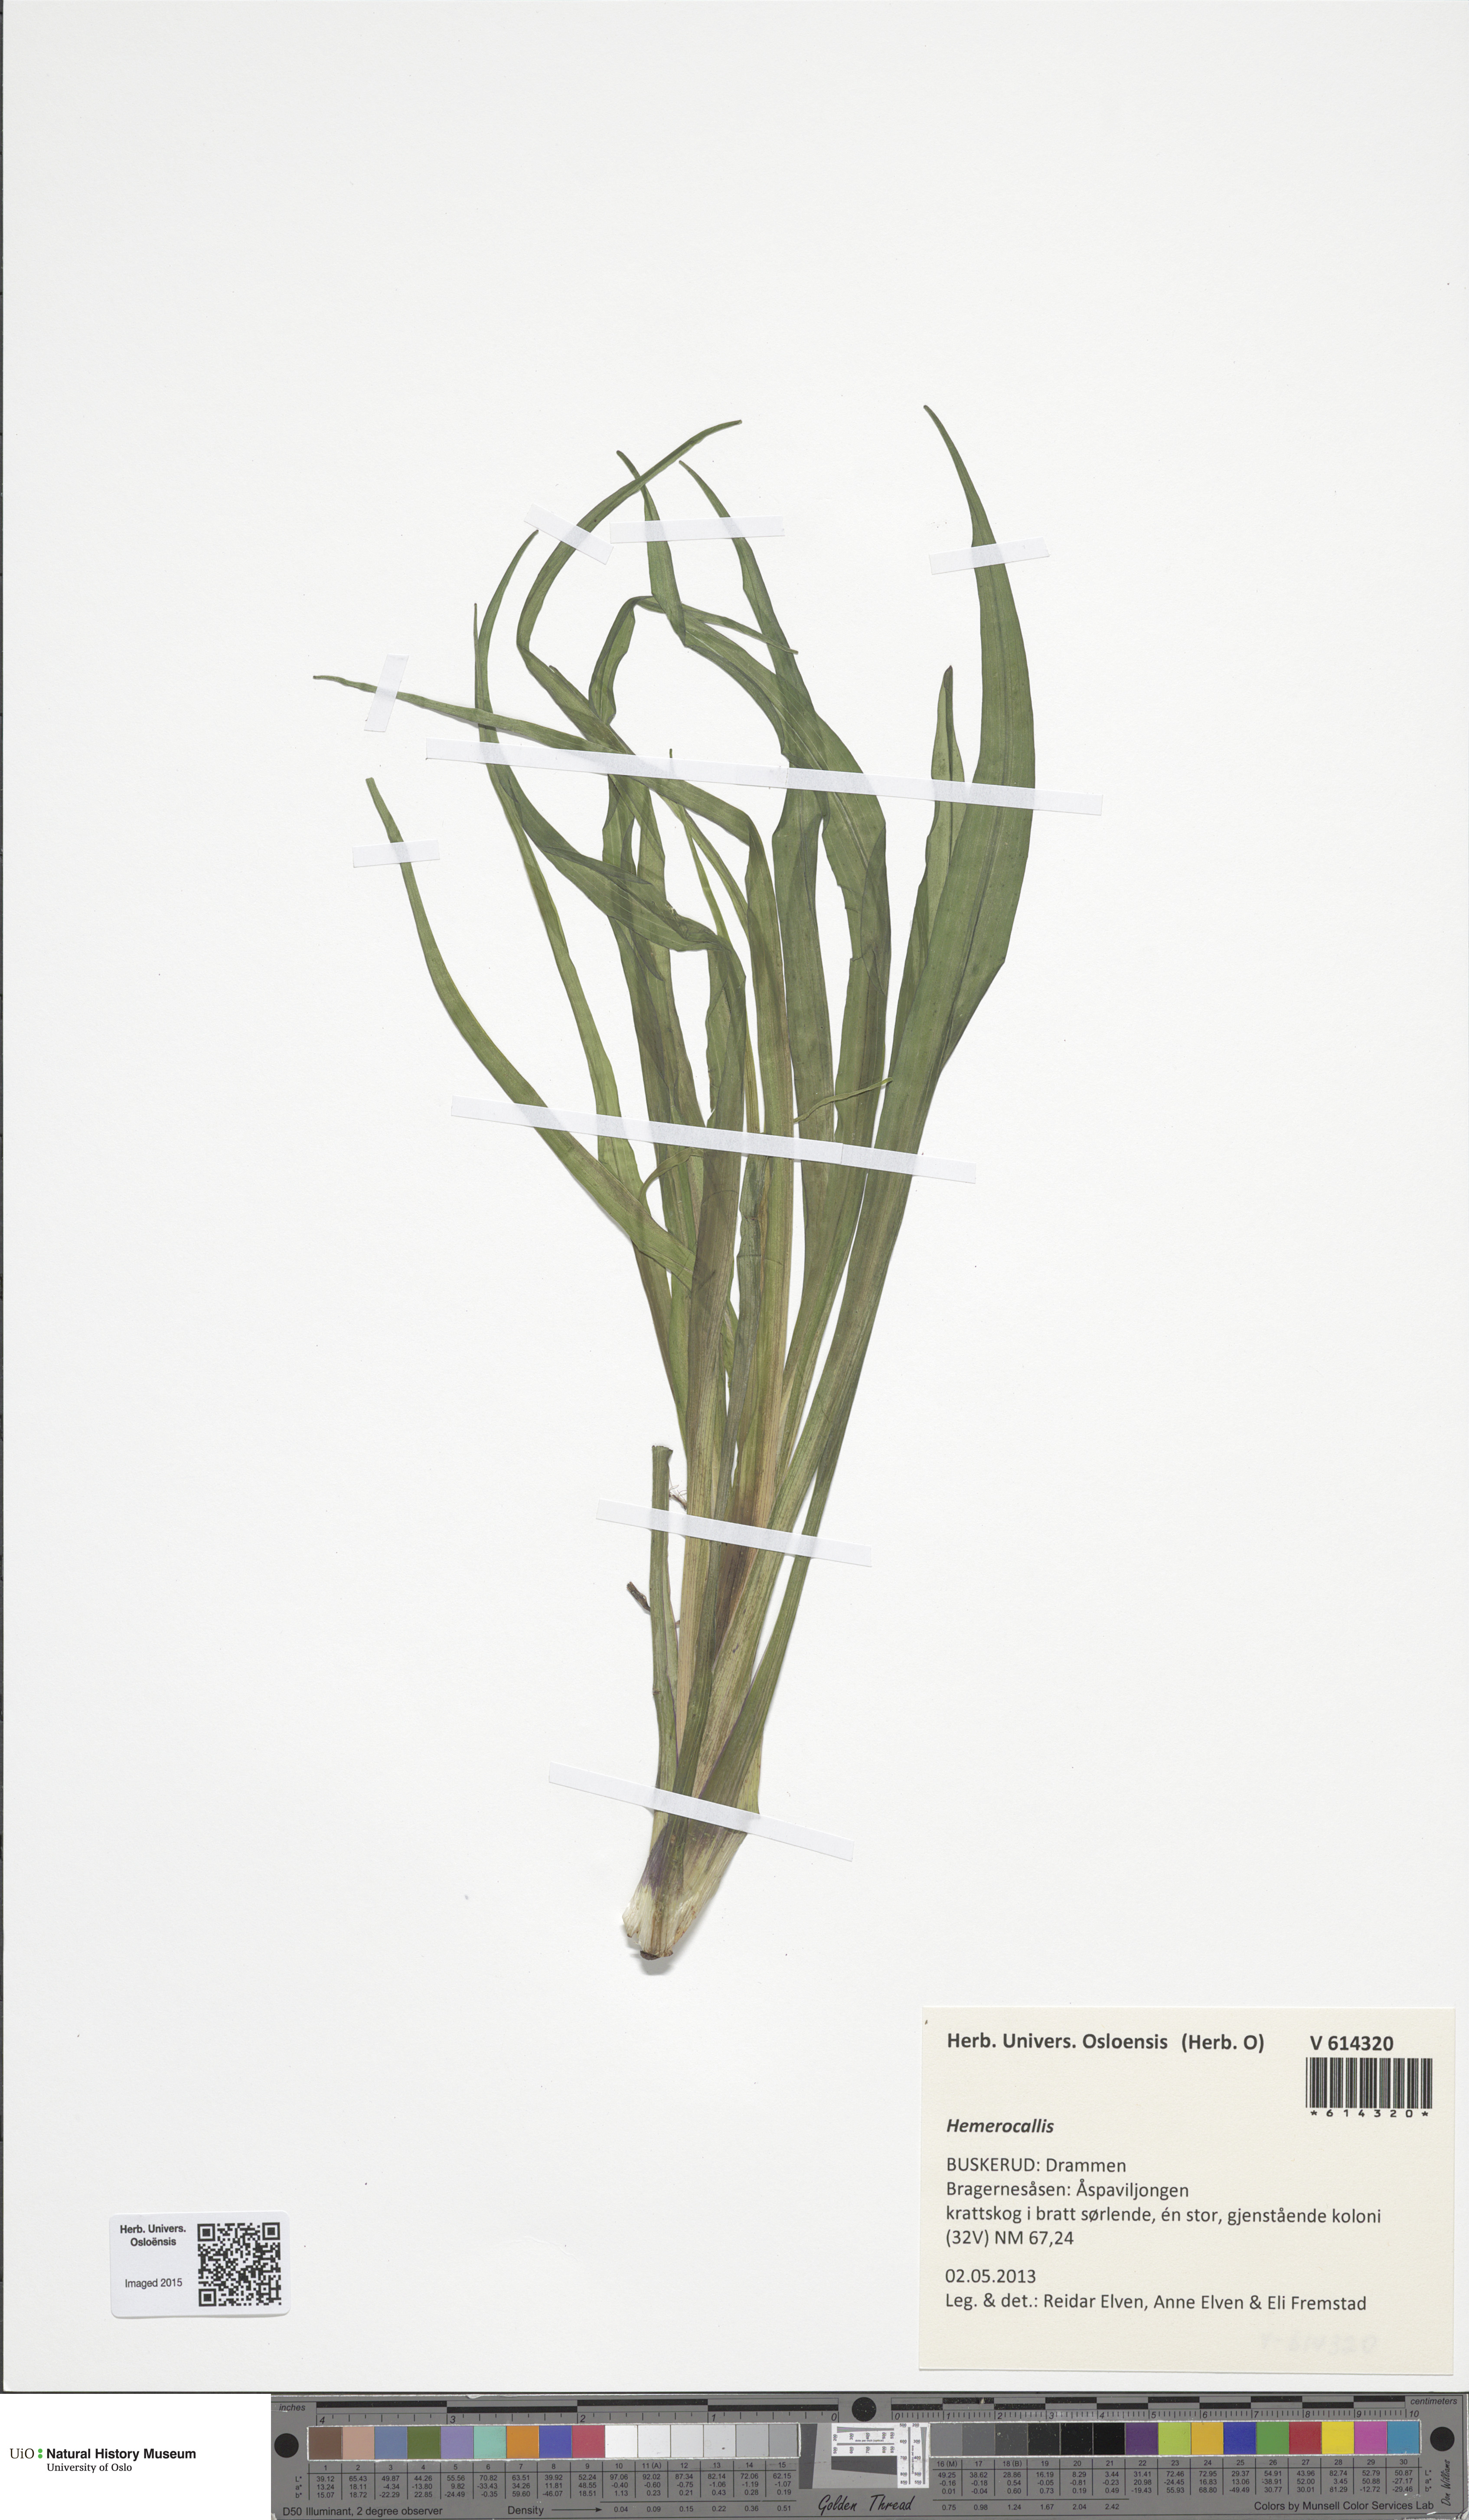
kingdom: Plantae
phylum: Tracheophyta
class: Liliopsida
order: Asparagales
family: Asphodelaceae
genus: Hemerocallis
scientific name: Hemerocallis
